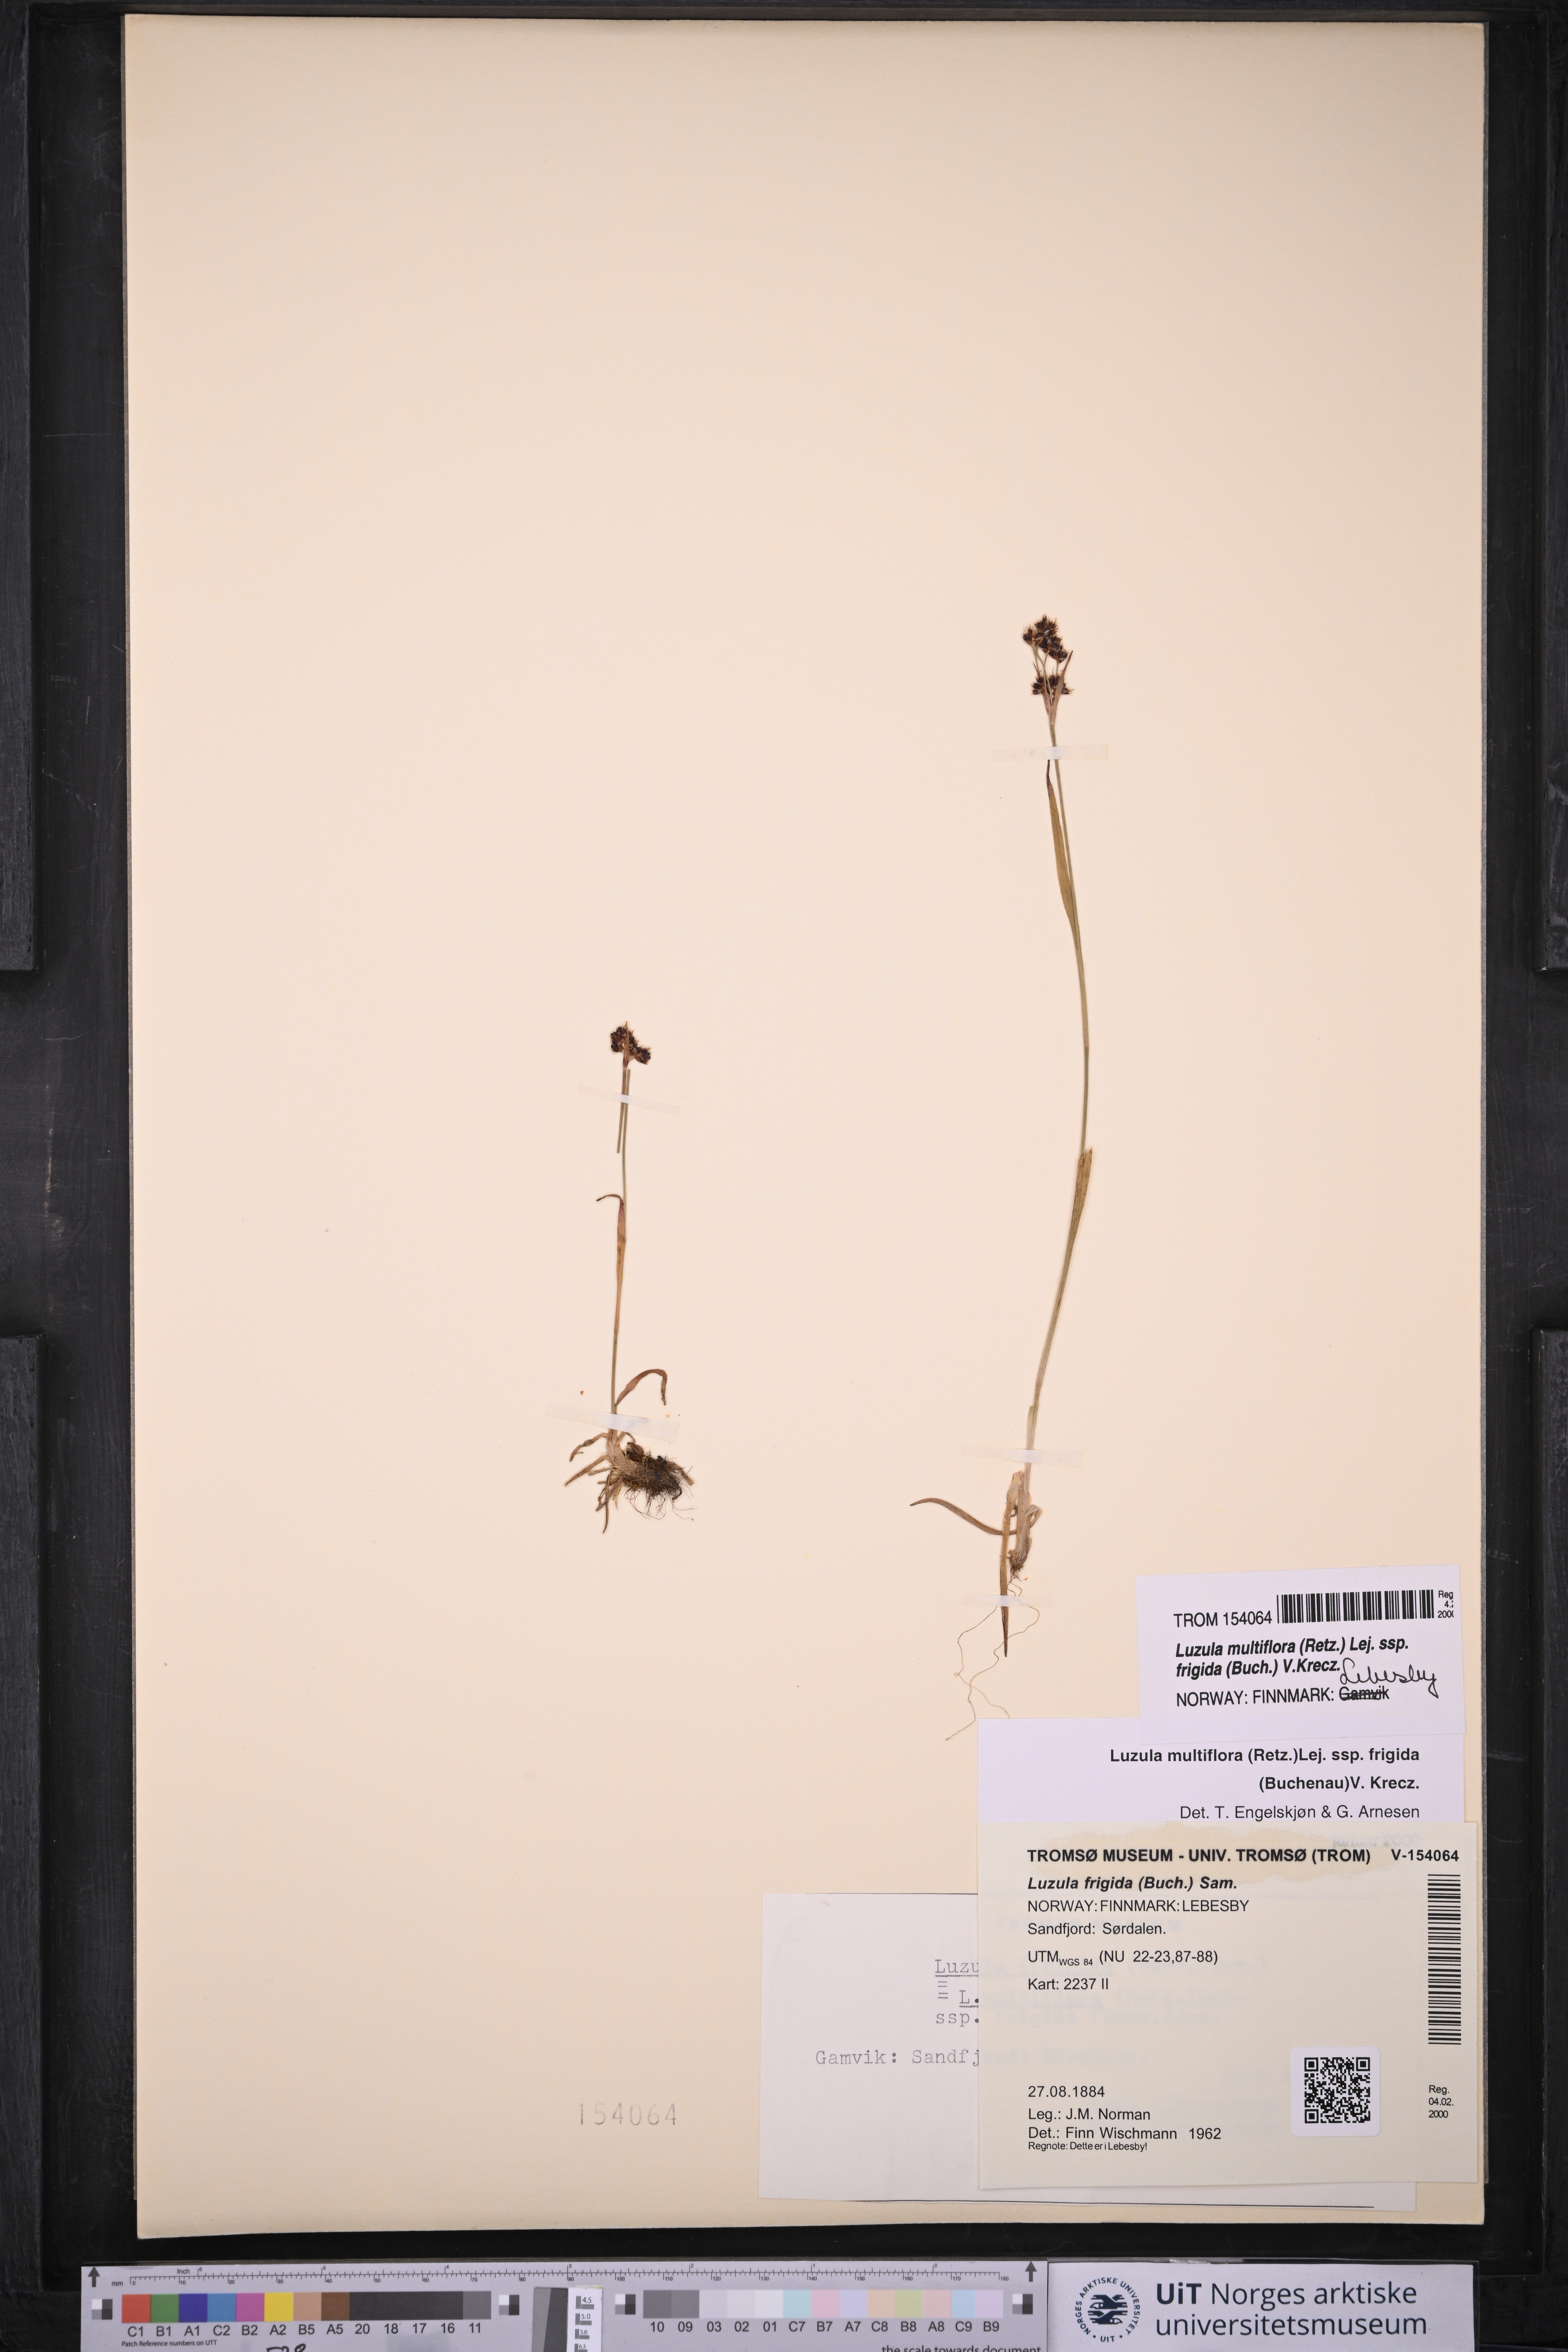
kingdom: Plantae
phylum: Tracheophyta
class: Liliopsida
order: Poales
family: Juncaceae
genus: Luzula
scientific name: Luzula multiflora
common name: Heath wood-rush
